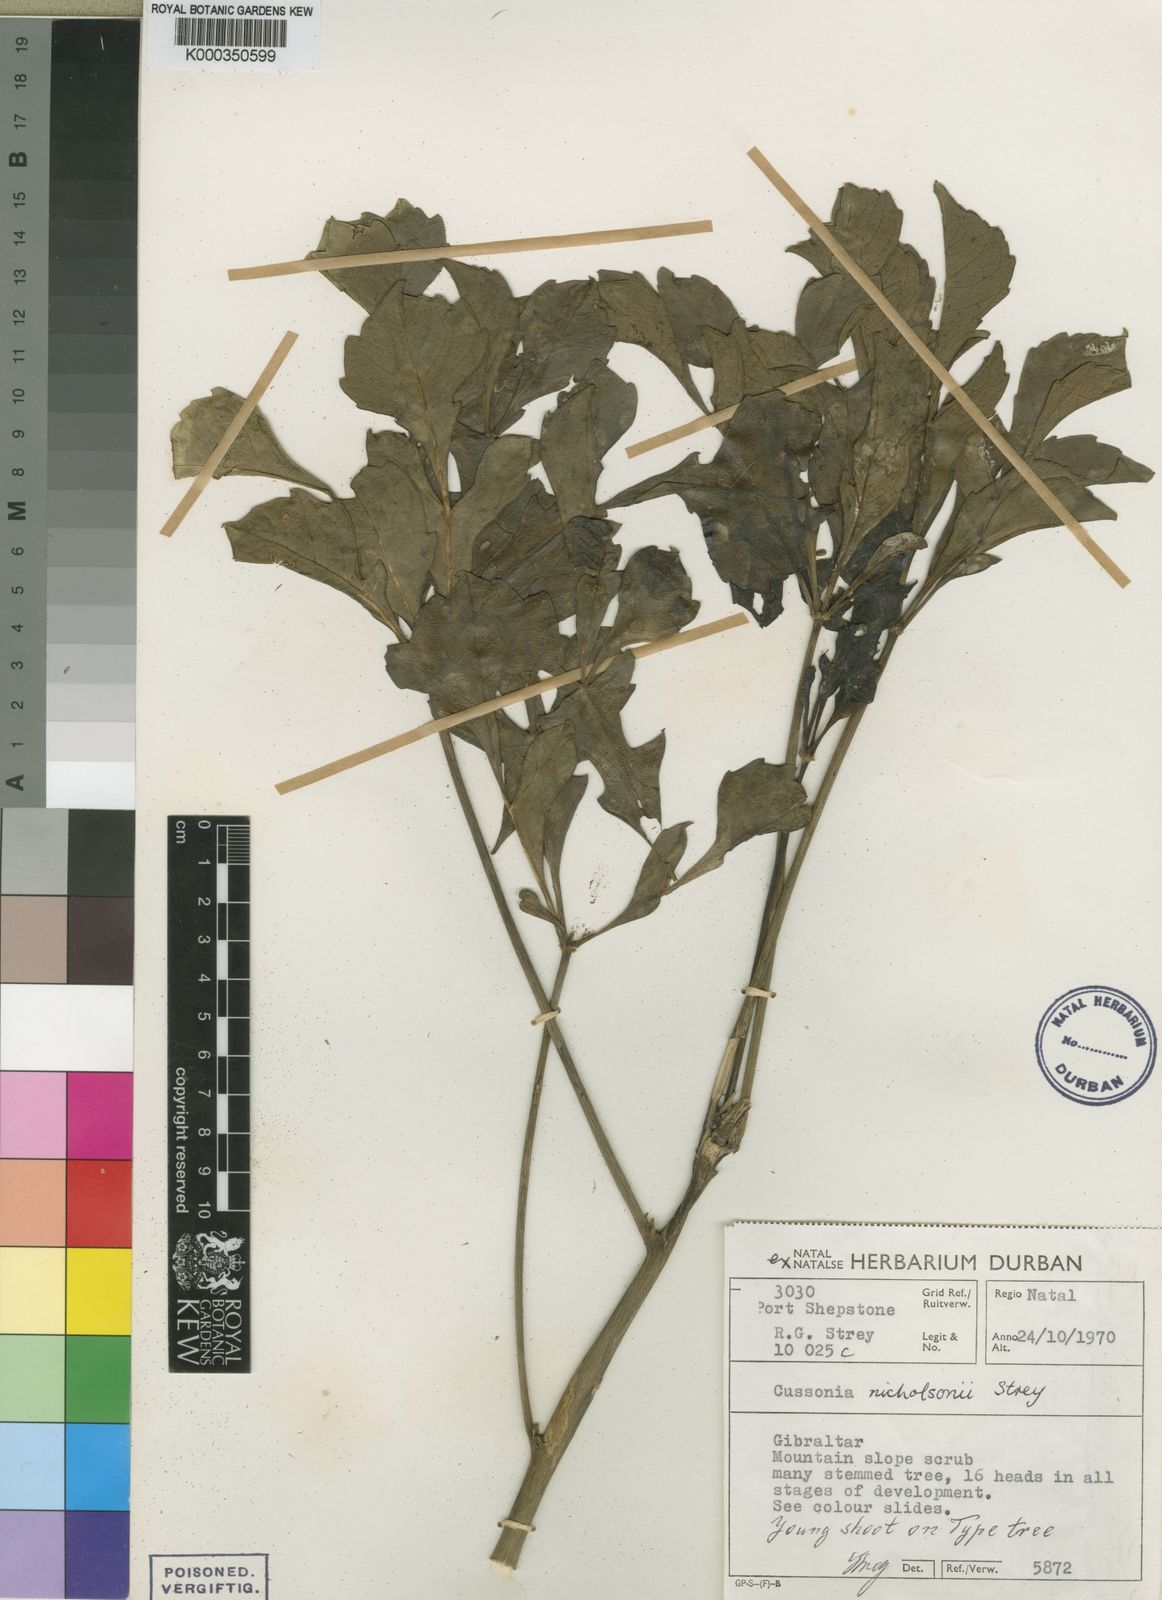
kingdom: Plantae
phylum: Tracheophyta
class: Magnoliopsida
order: Apiales
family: Araliaceae
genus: Cussonia
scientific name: Cussonia nicholsonii
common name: South coast cabbage-tree
